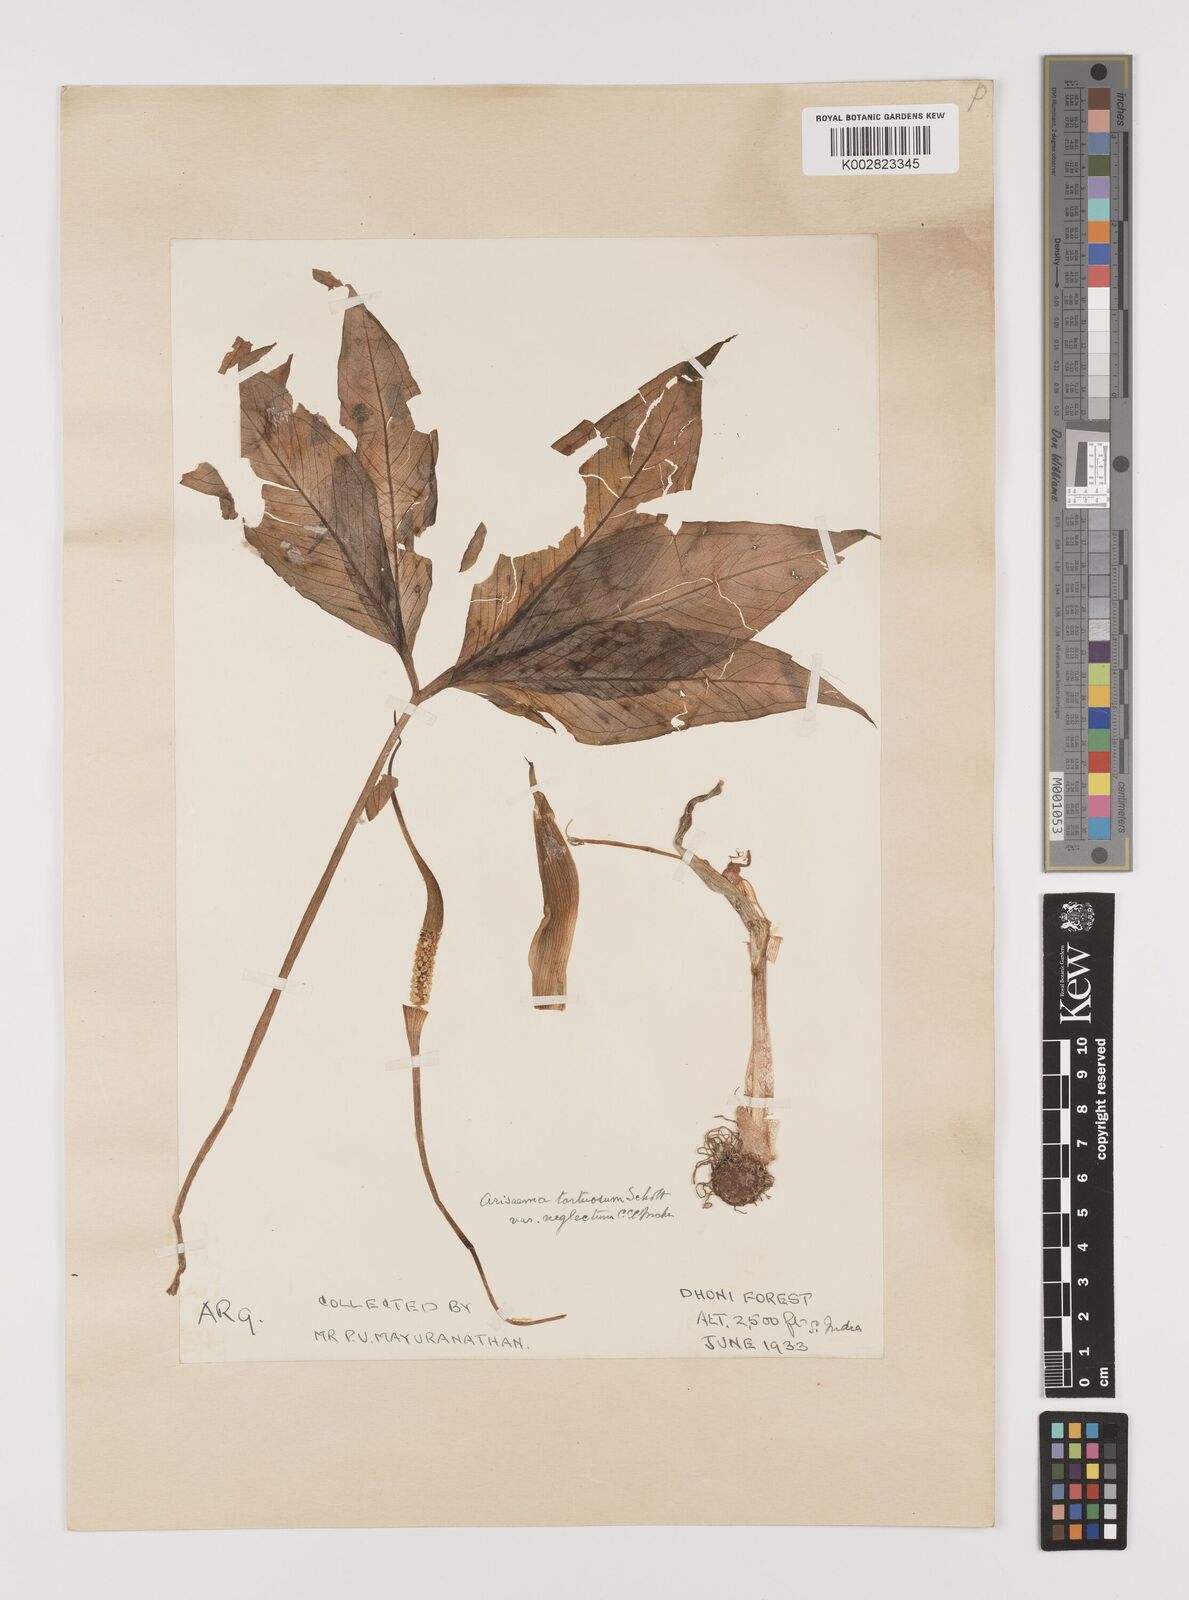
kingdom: Plantae
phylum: Tracheophyta
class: Liliopsida
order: Alismatales
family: Araceae
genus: Arisaema
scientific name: Arisaema tortuosum
